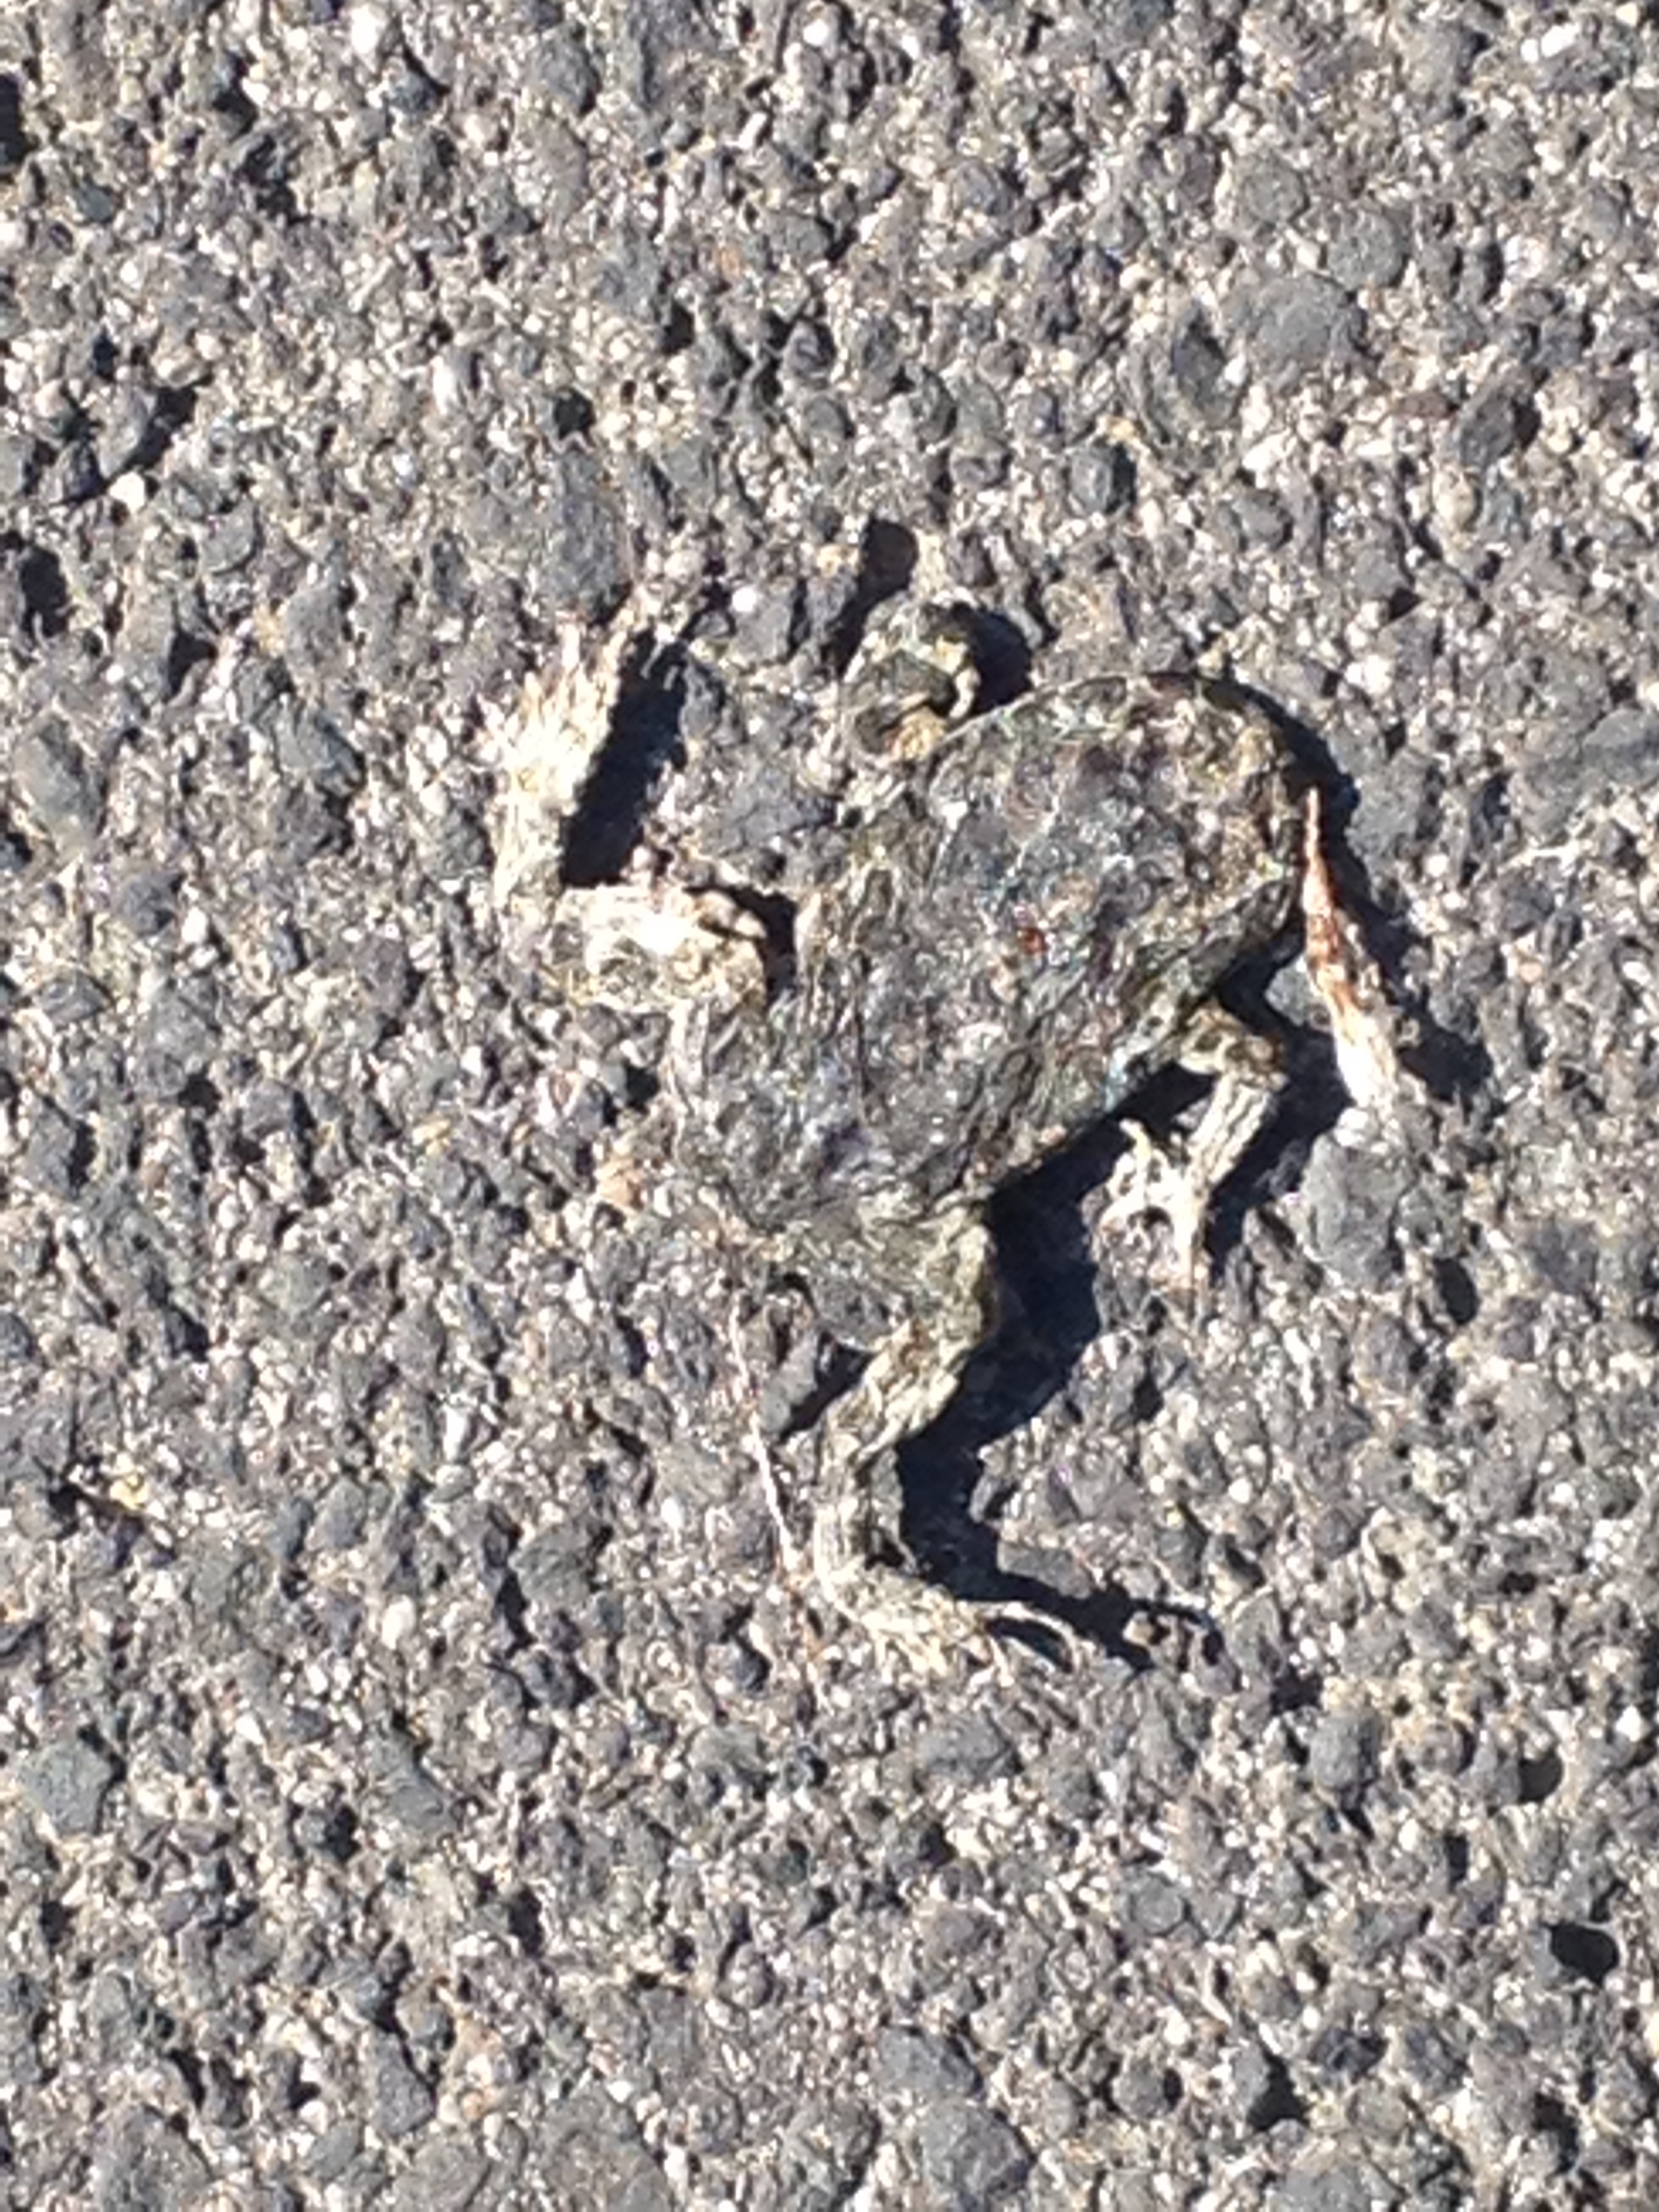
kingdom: Animalia
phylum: Chordata
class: Amphibia
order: Anura
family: Bufonidae
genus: Bufotes
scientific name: Bufotes viridis
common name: European green toad
